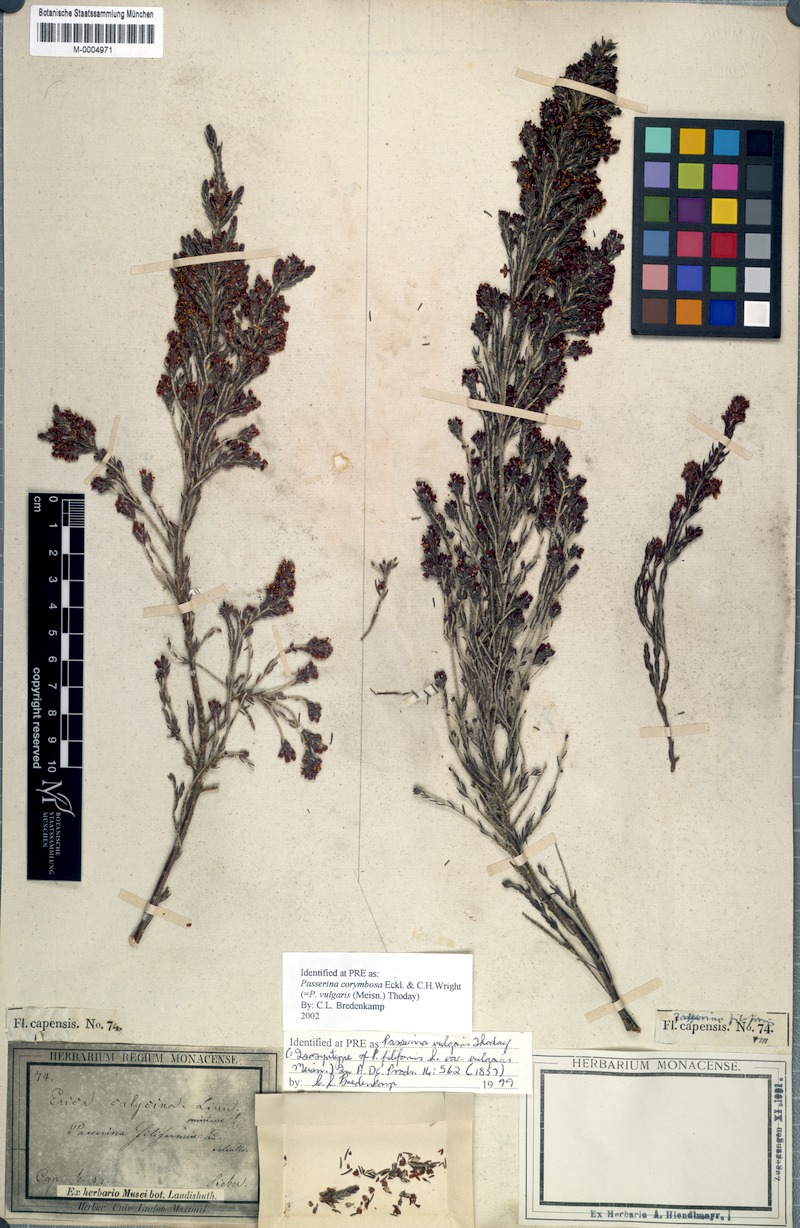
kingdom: Plantae
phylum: Tracheophyta
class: Magnoliopsida
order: Malvales
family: Thymelaeaceae
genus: Passerina
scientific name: Passerina corymbosa
